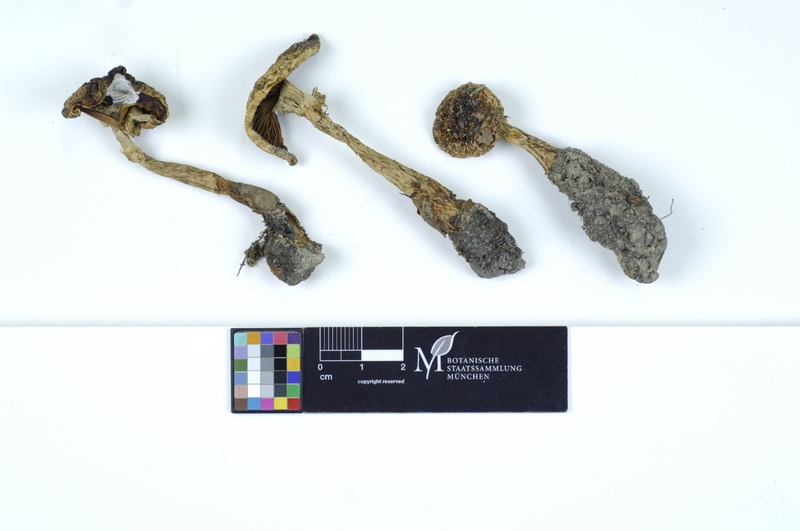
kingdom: Plantae
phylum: Tracheophyta
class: Magnoliopsida
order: Fagales
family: Fagaceae
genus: Fagus
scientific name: Fagus sylvatica
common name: Beech
